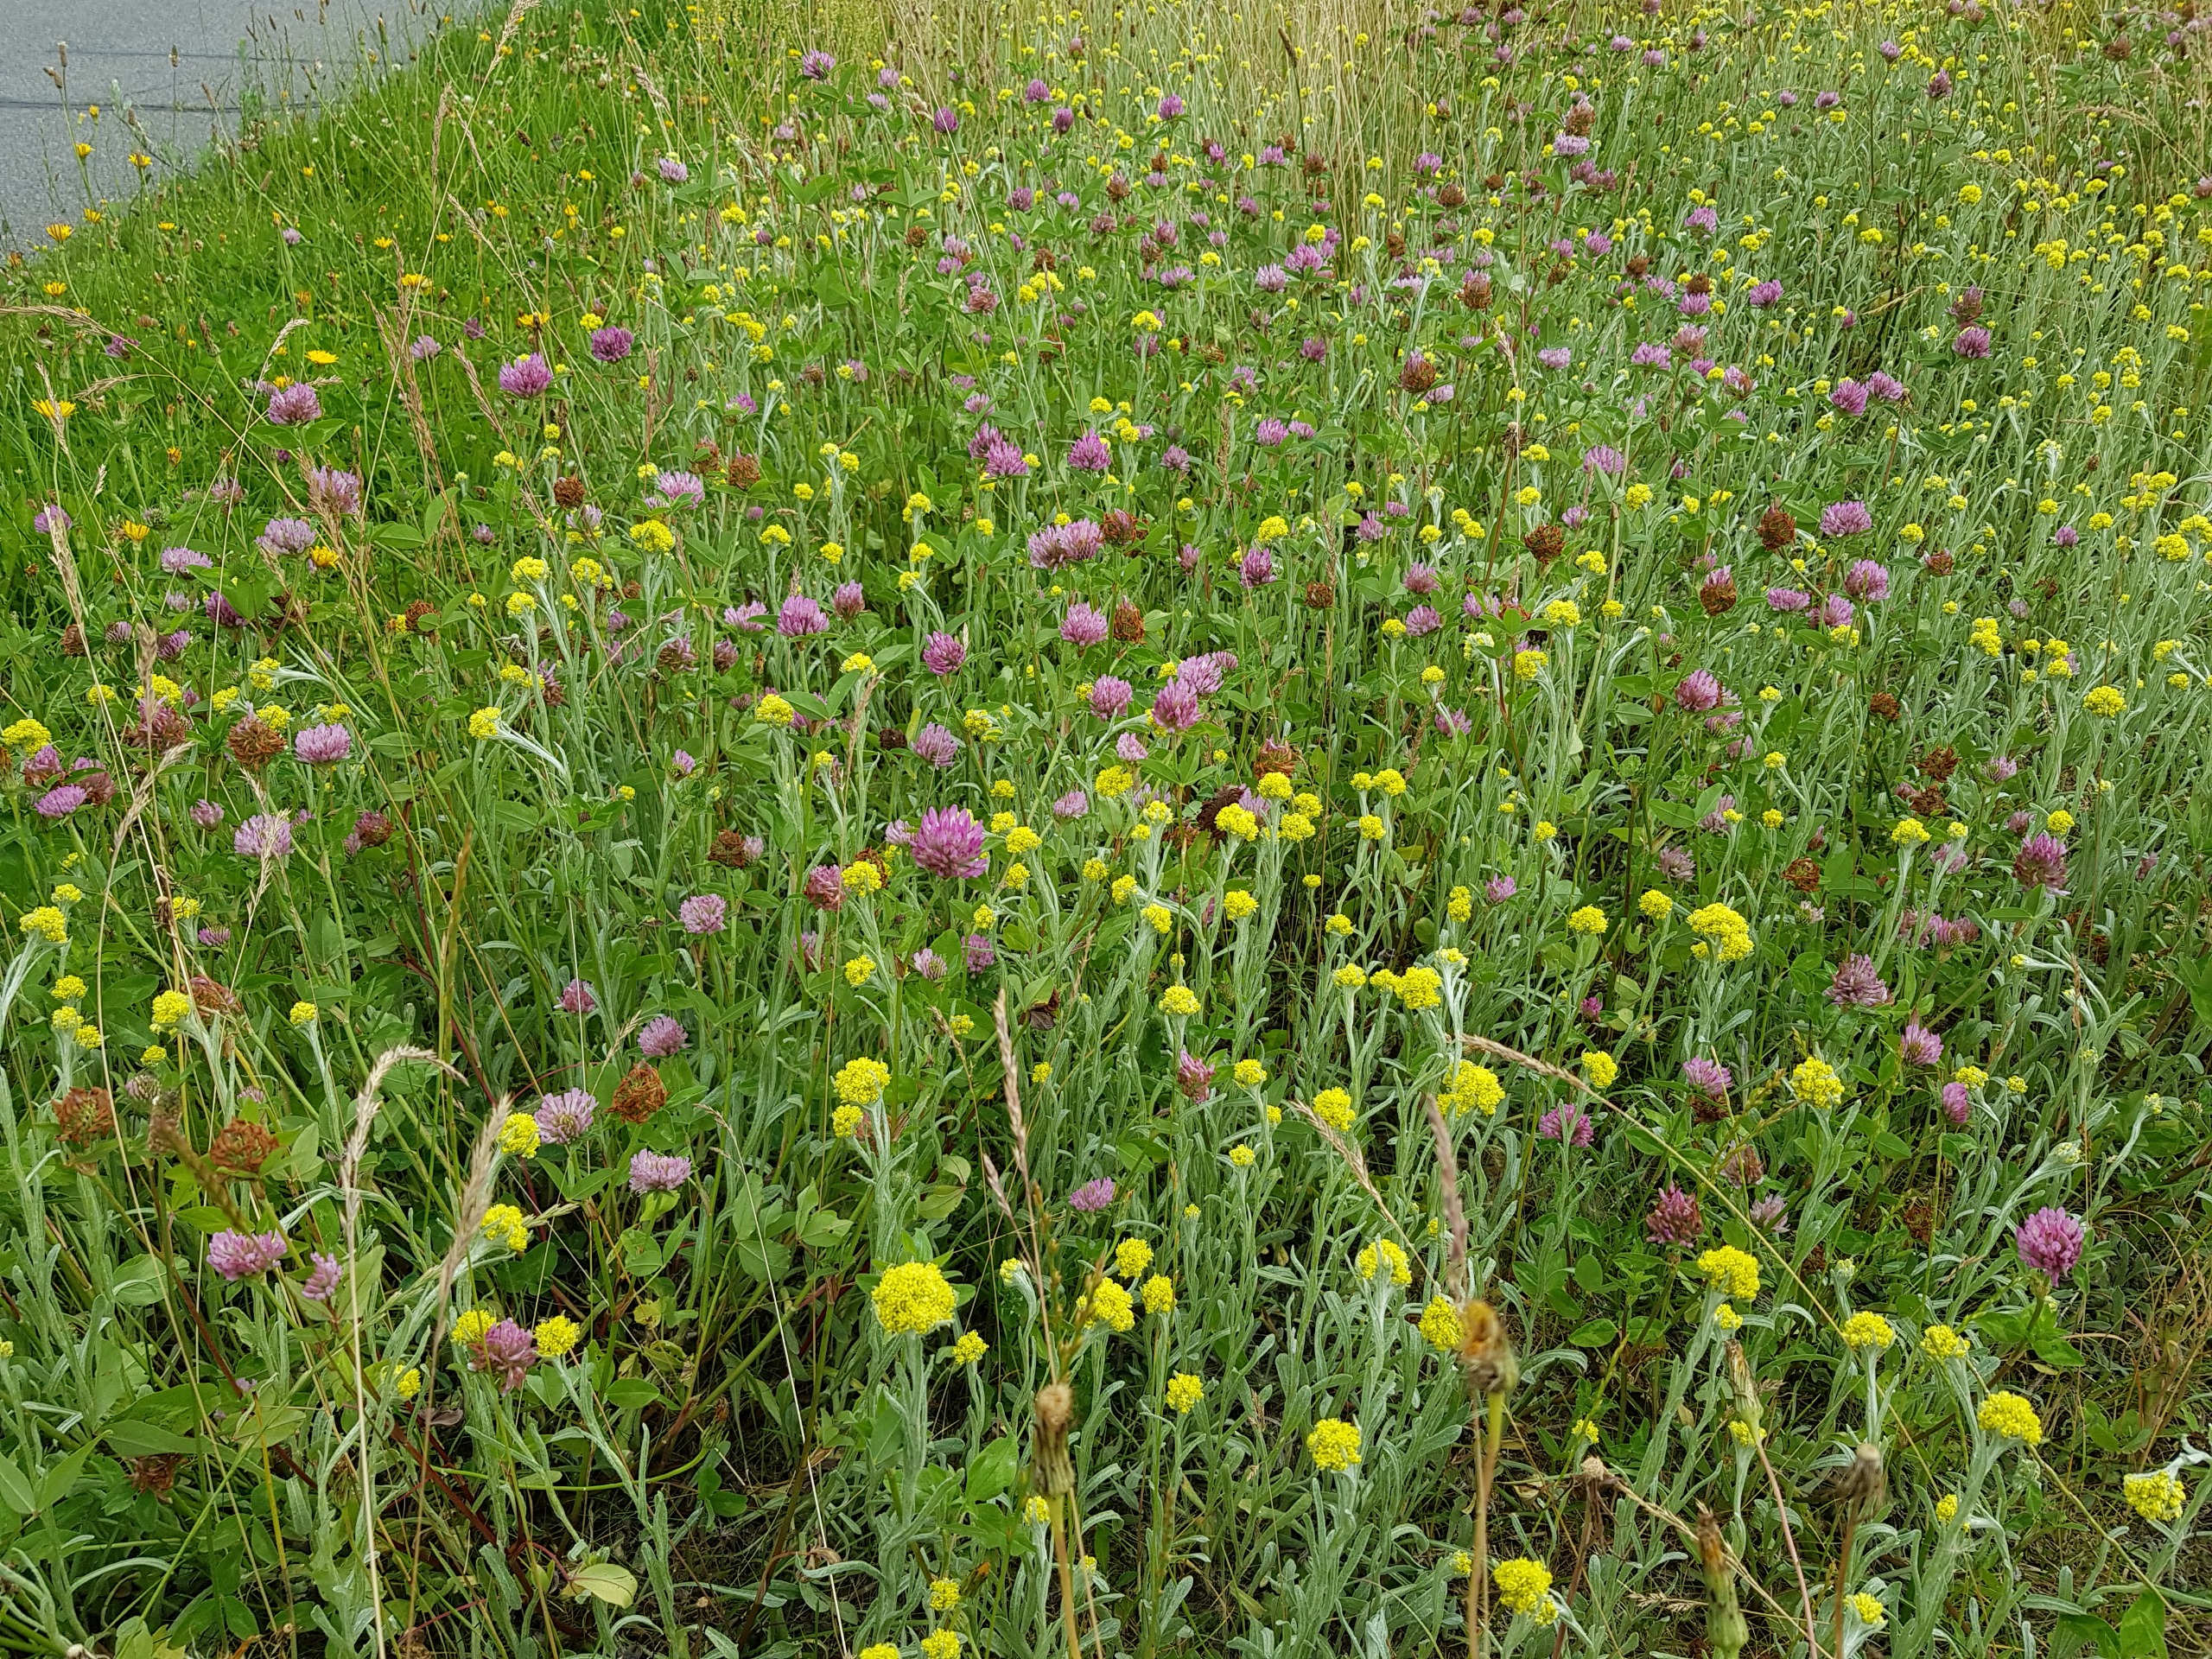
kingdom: Plantae
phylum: Tracheophyta
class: Magnoliopsida
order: Asterales
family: Asteraceae
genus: Helichrysum
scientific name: Helichrysum arenarium
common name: Gul evighedsblomst
